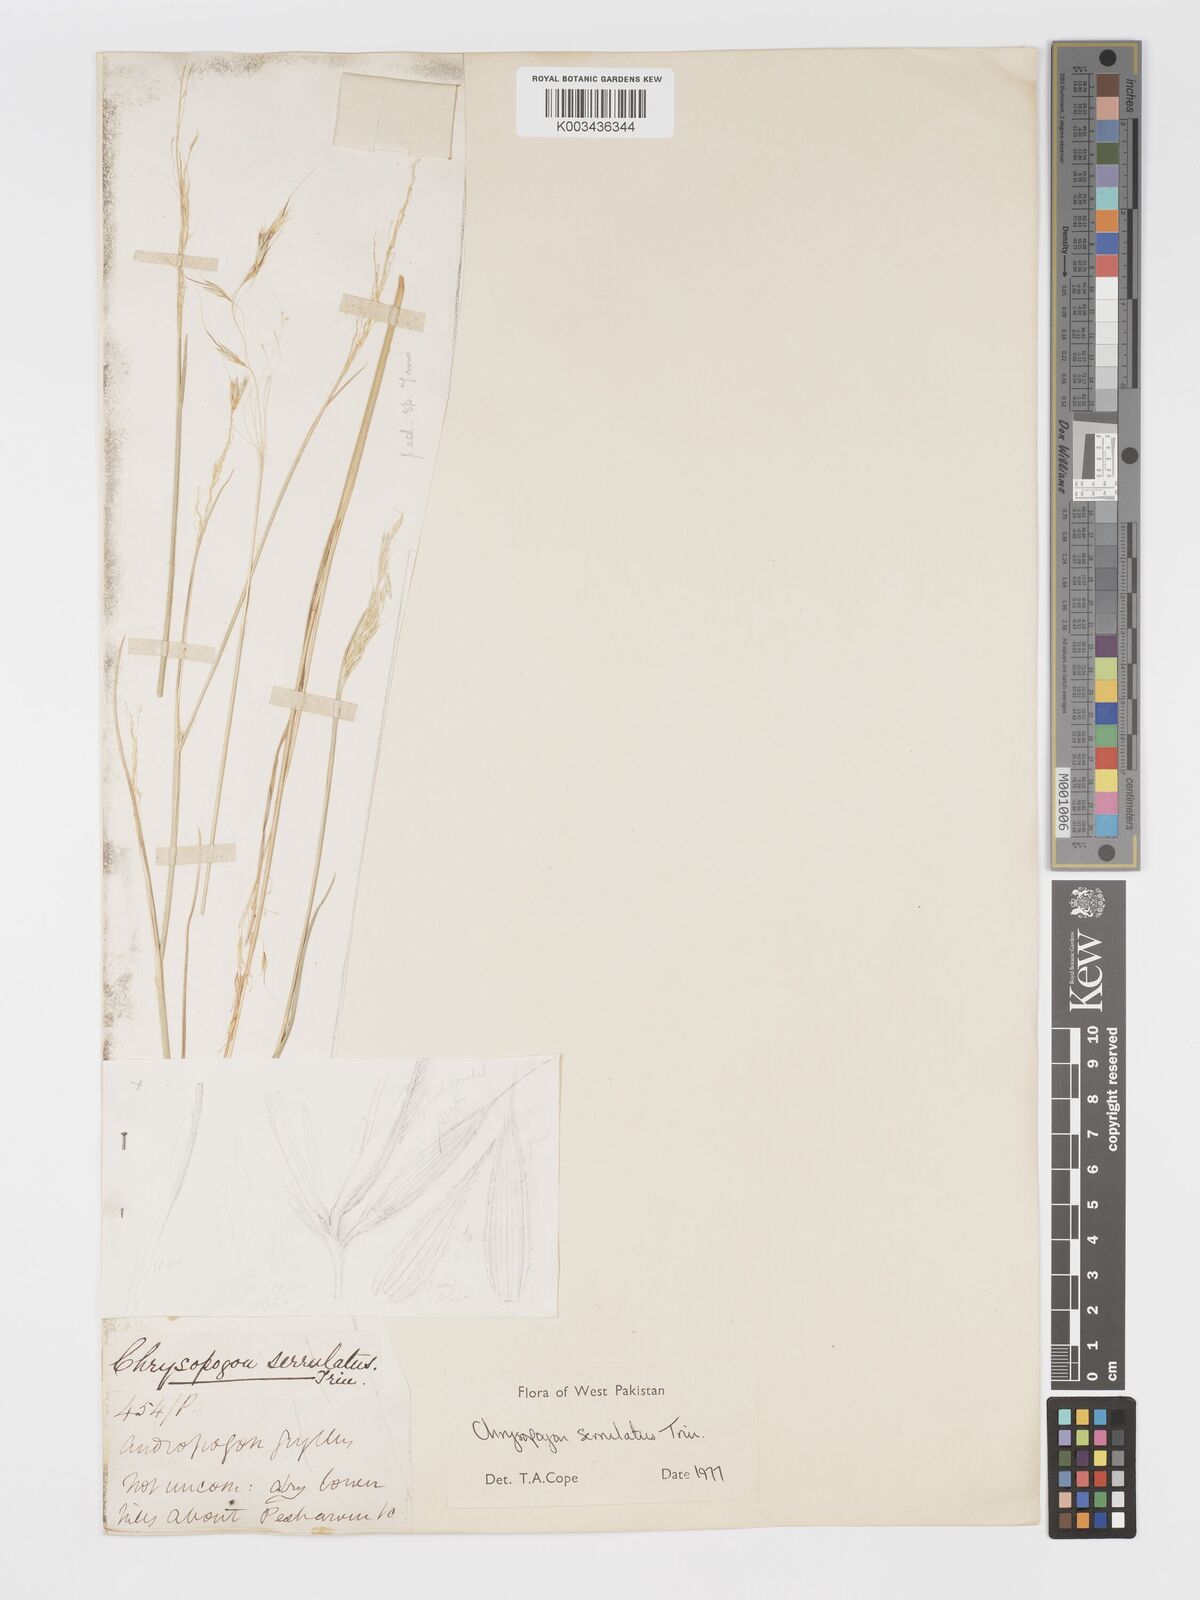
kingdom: Plantae
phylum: Tracheophyta
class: Liliopsida
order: Poales
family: Poaceae
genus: Chrysopogon
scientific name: Chrysopogon serrulatus
